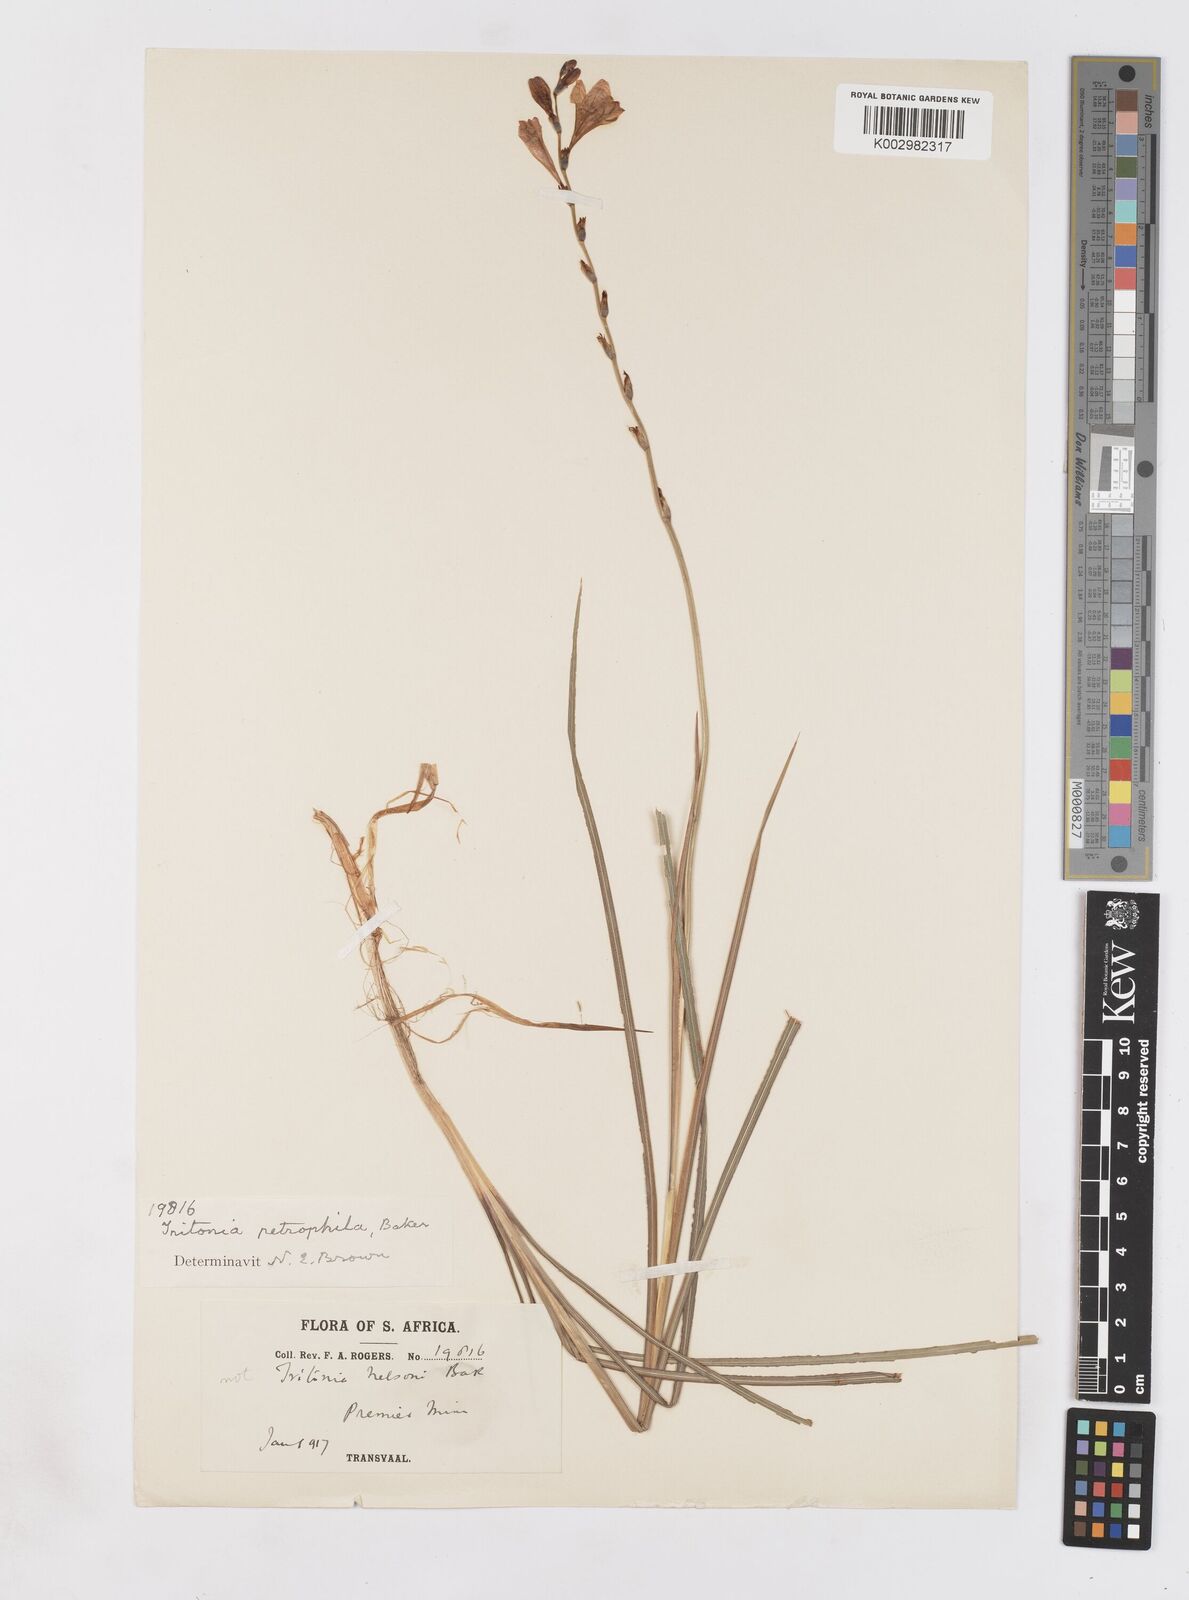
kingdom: Plantae
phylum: Tracheophyta
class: Liliopsida
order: Asparagales
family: Iridaceae
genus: Tritonia
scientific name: Tritonia nelsonii
